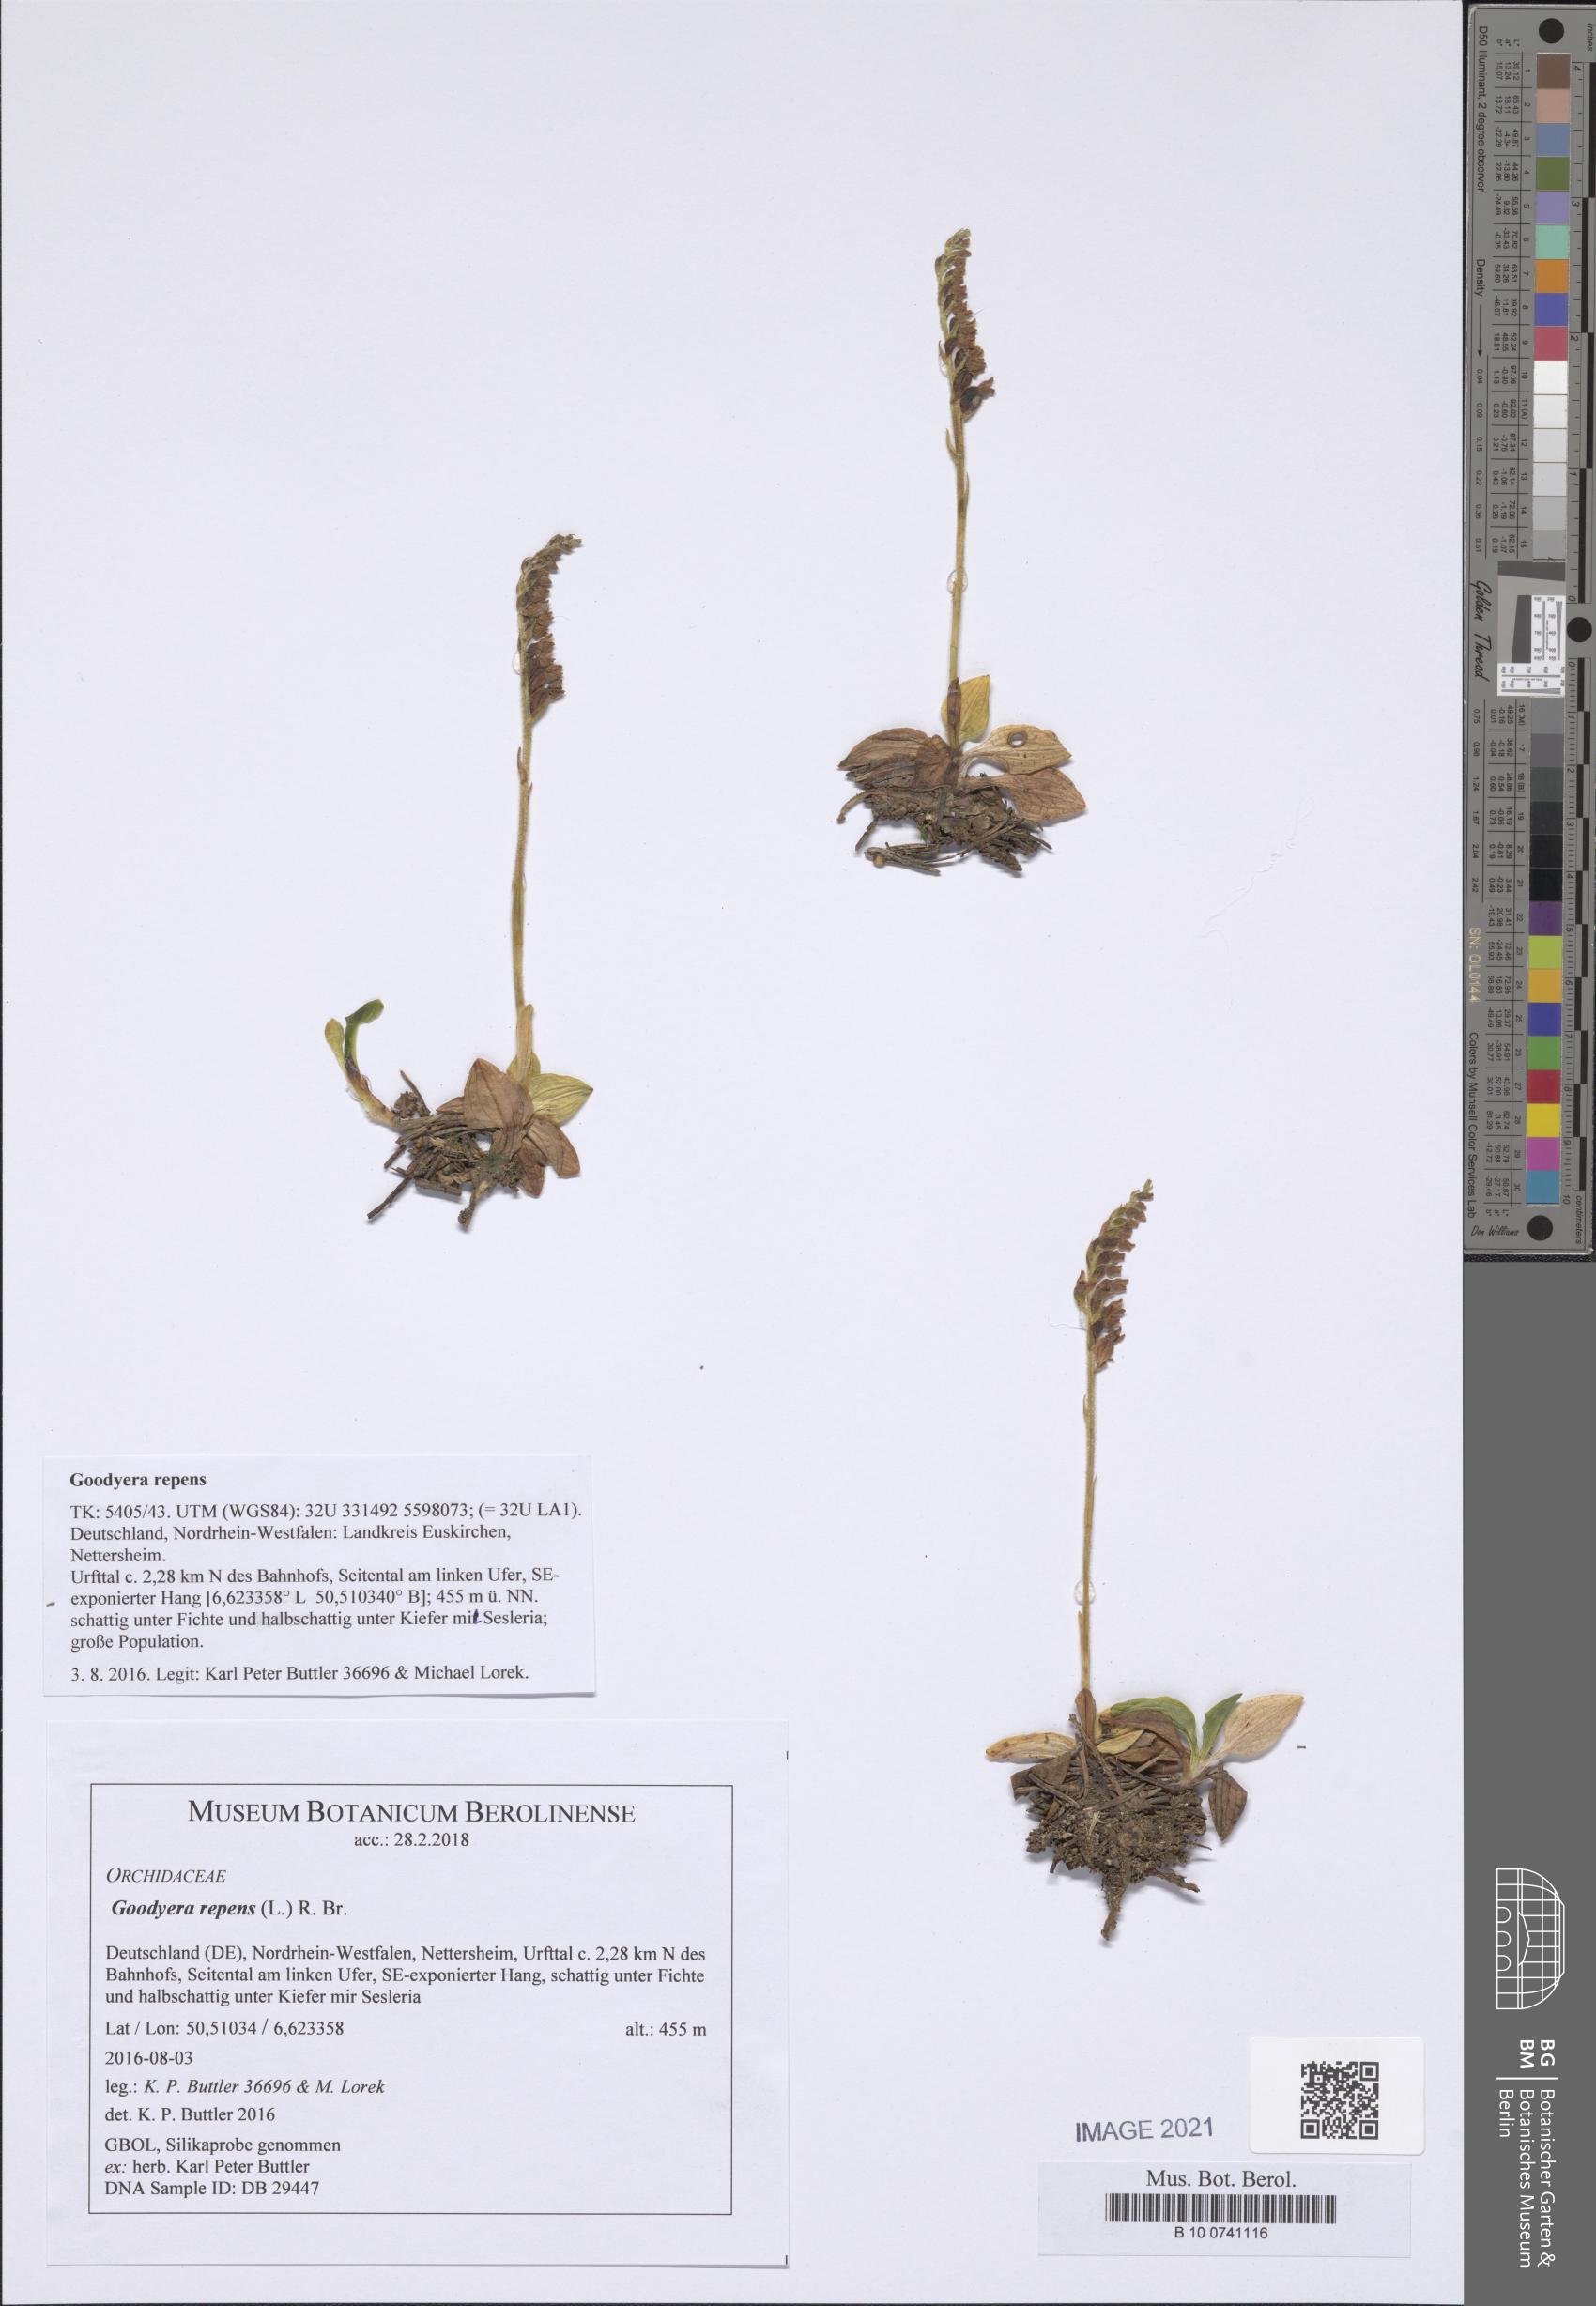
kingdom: Plantae
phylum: Tracheophyta
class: Liliopsida
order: Asparagales
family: Orchidaceae
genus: Goodyera
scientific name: Goodyera repens
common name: Creeping lady's-tresses
